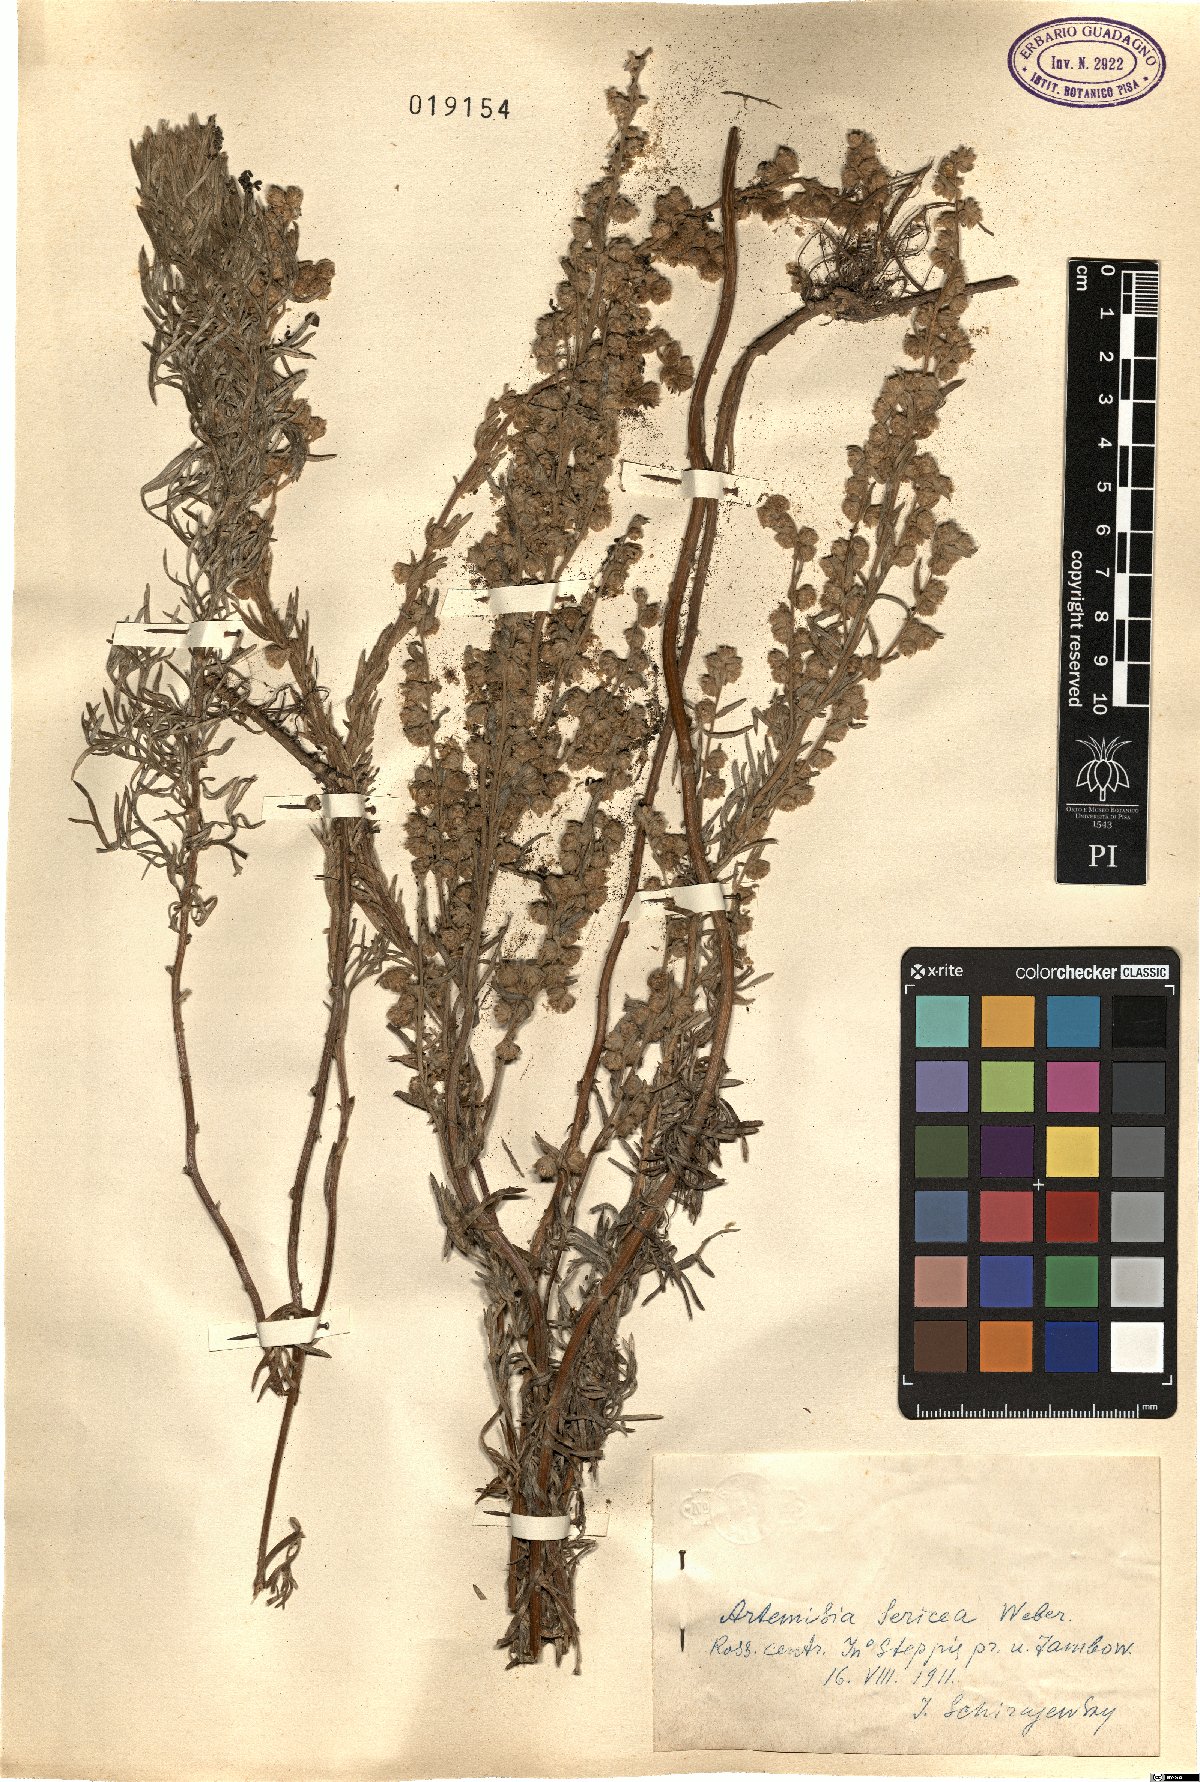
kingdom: Plantae
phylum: Tracheophyta
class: Magnoliopsida
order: Asterales
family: Asteraceae
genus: Artemisia
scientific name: Artemisia sericea
